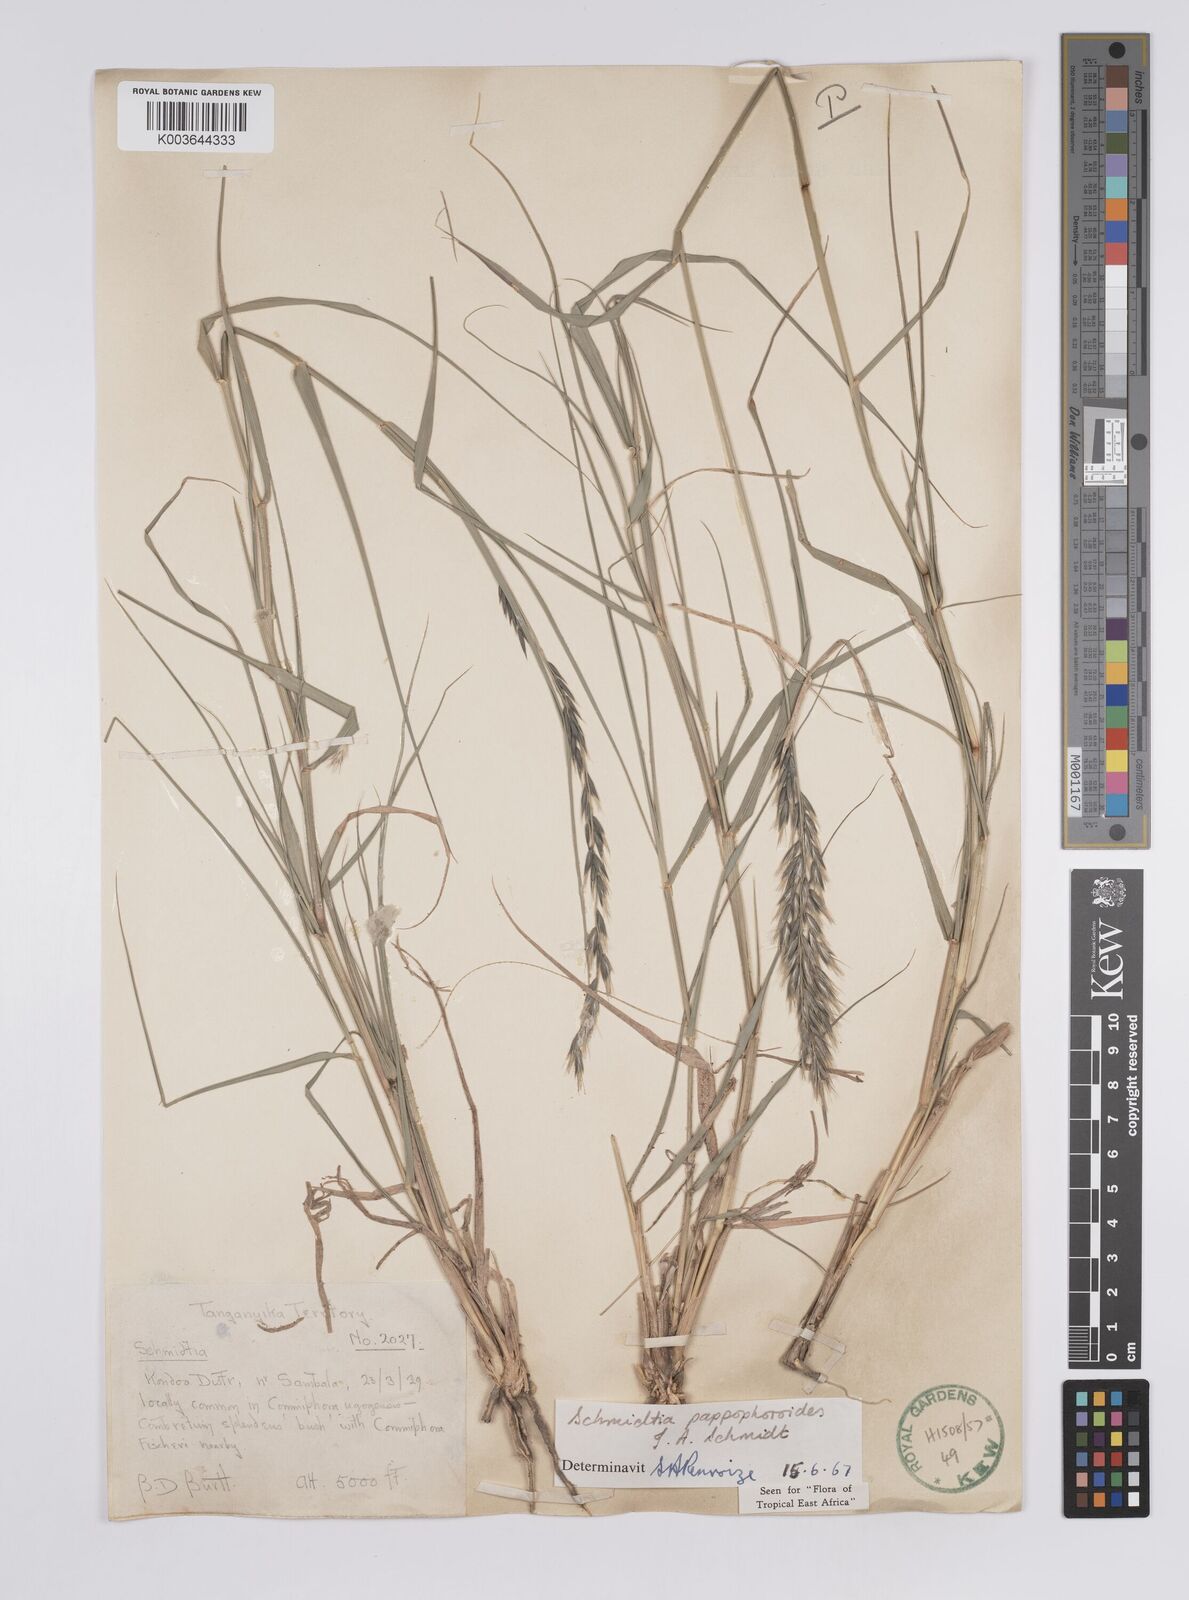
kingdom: Plantae
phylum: Tracheophyta
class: Liliopsida
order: Poales
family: Poaceae
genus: Schmidtia
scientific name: Schmidtia pappophoroides
